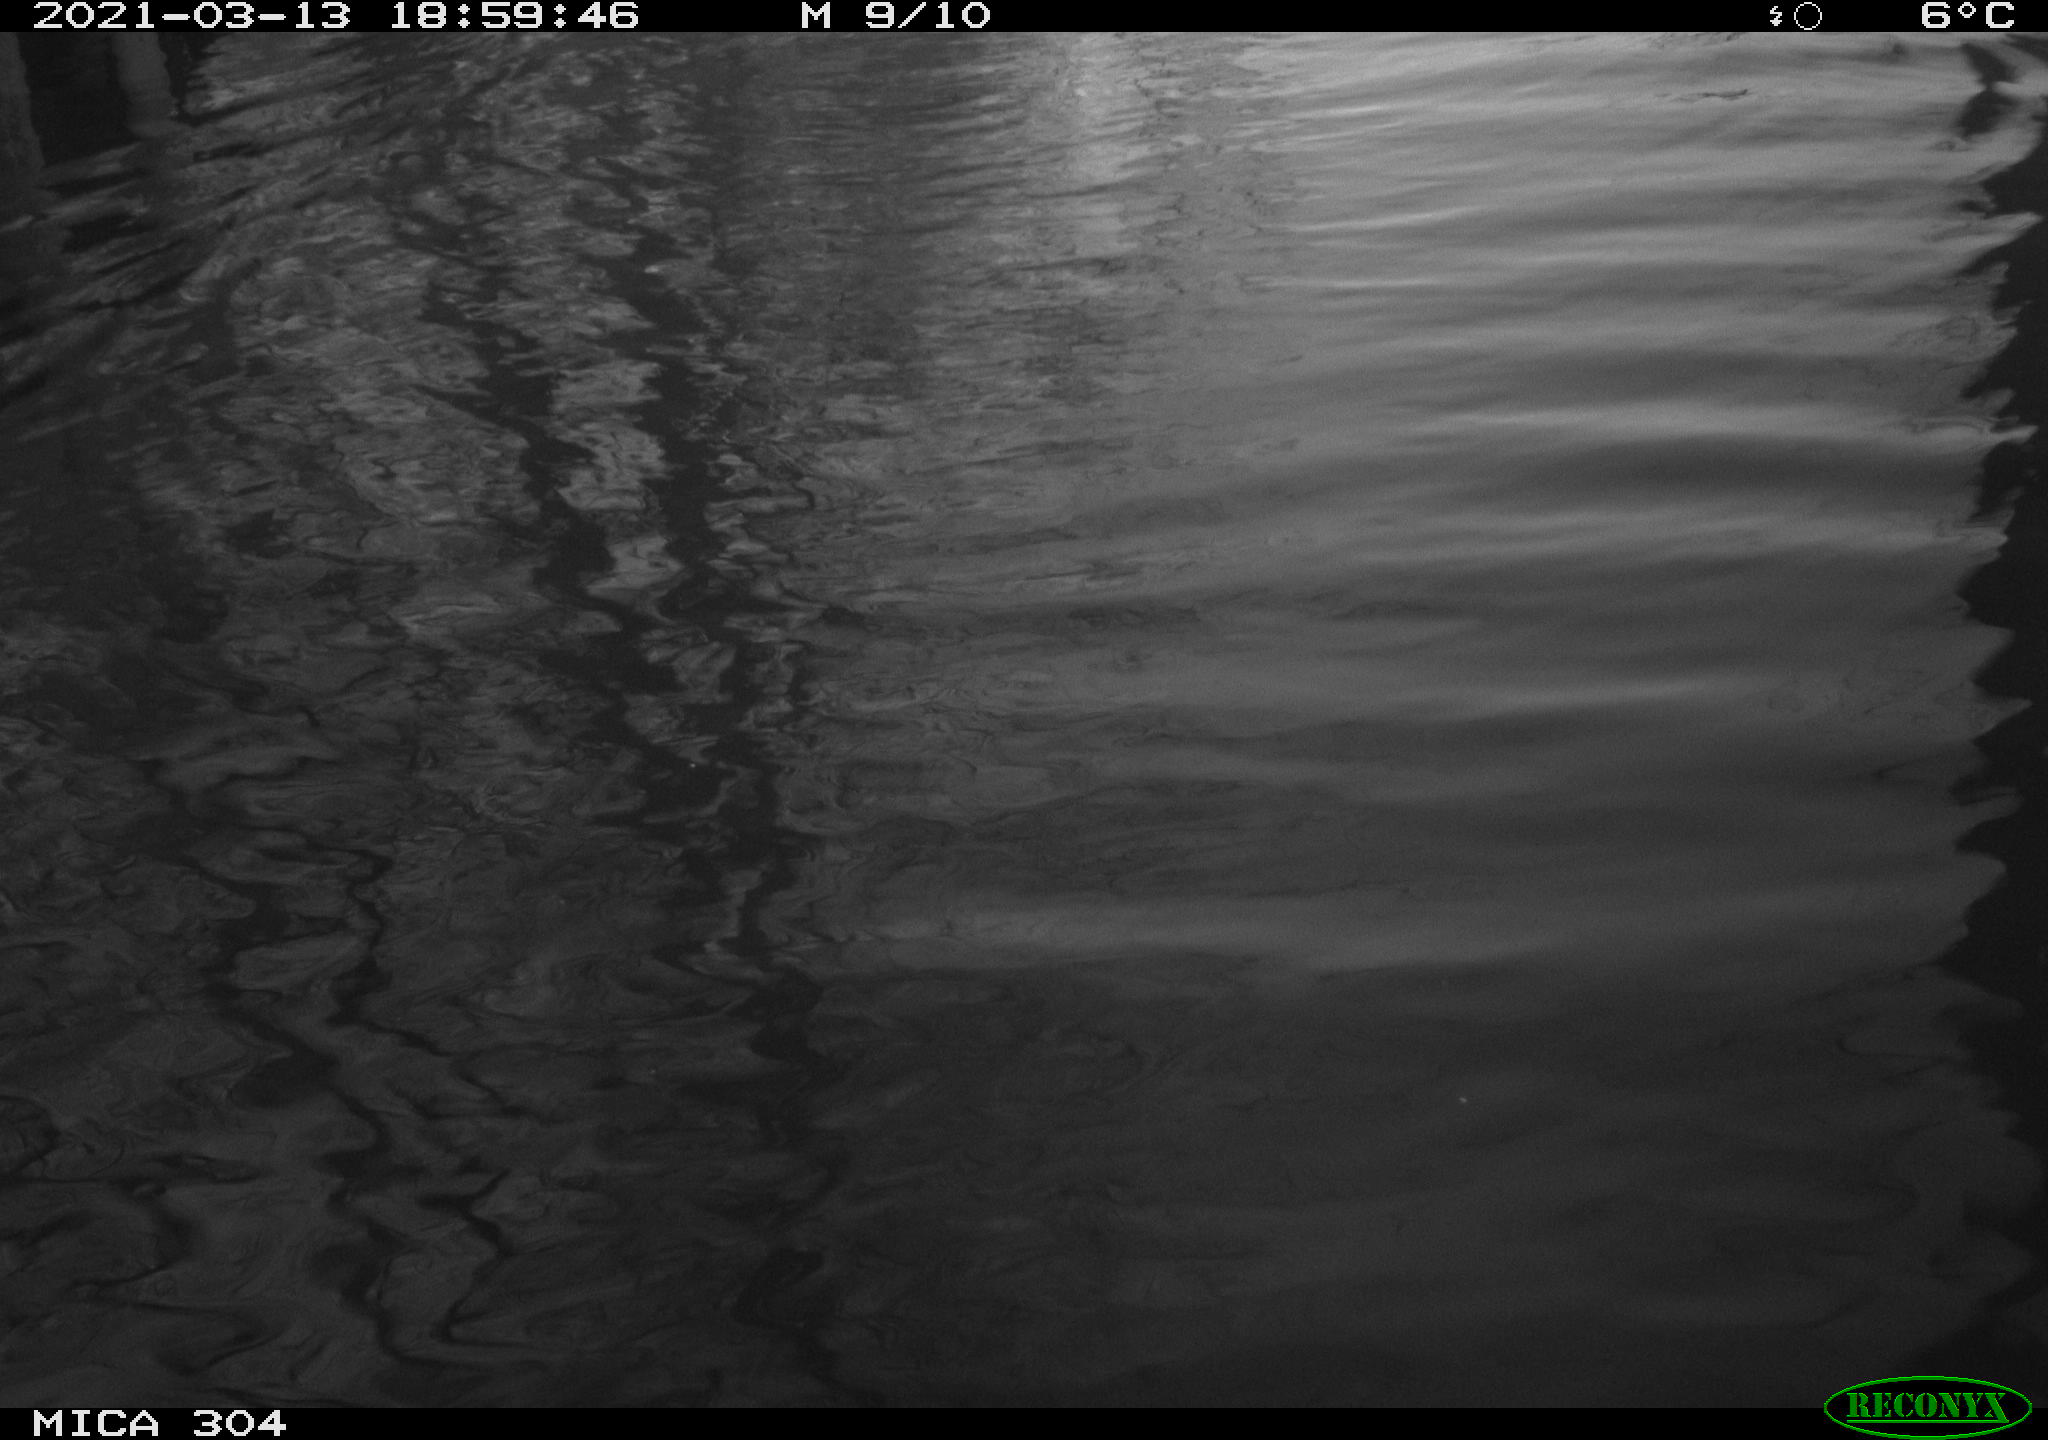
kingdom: Animalia
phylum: Chordata
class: Mammalia
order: Rodentia
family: Cricetidae
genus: Ondatra
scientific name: Ondatra zibethicus
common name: Muskrat
